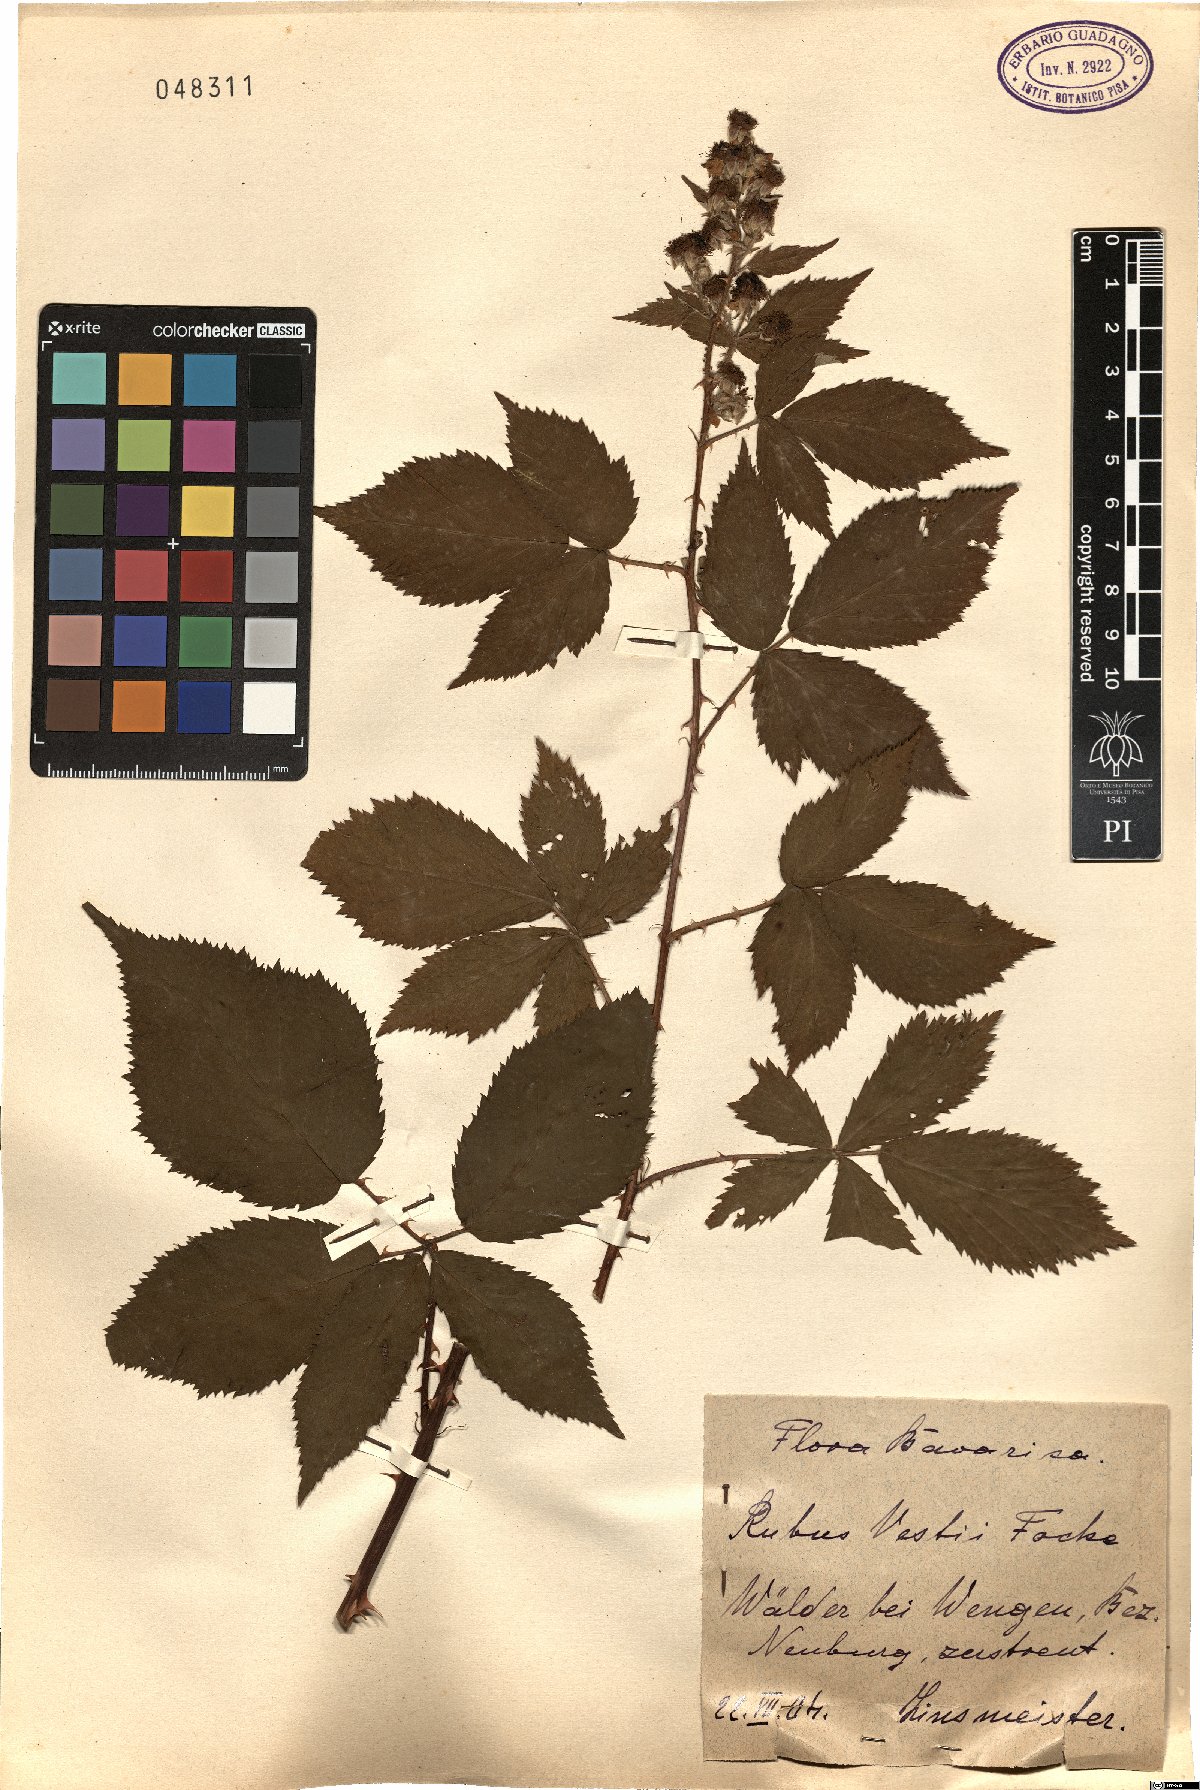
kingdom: Plantae
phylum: Tracheophyta
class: Magnoliopsida
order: Rosales
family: Rosaceae
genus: Rubus
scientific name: Rubus constrictus
